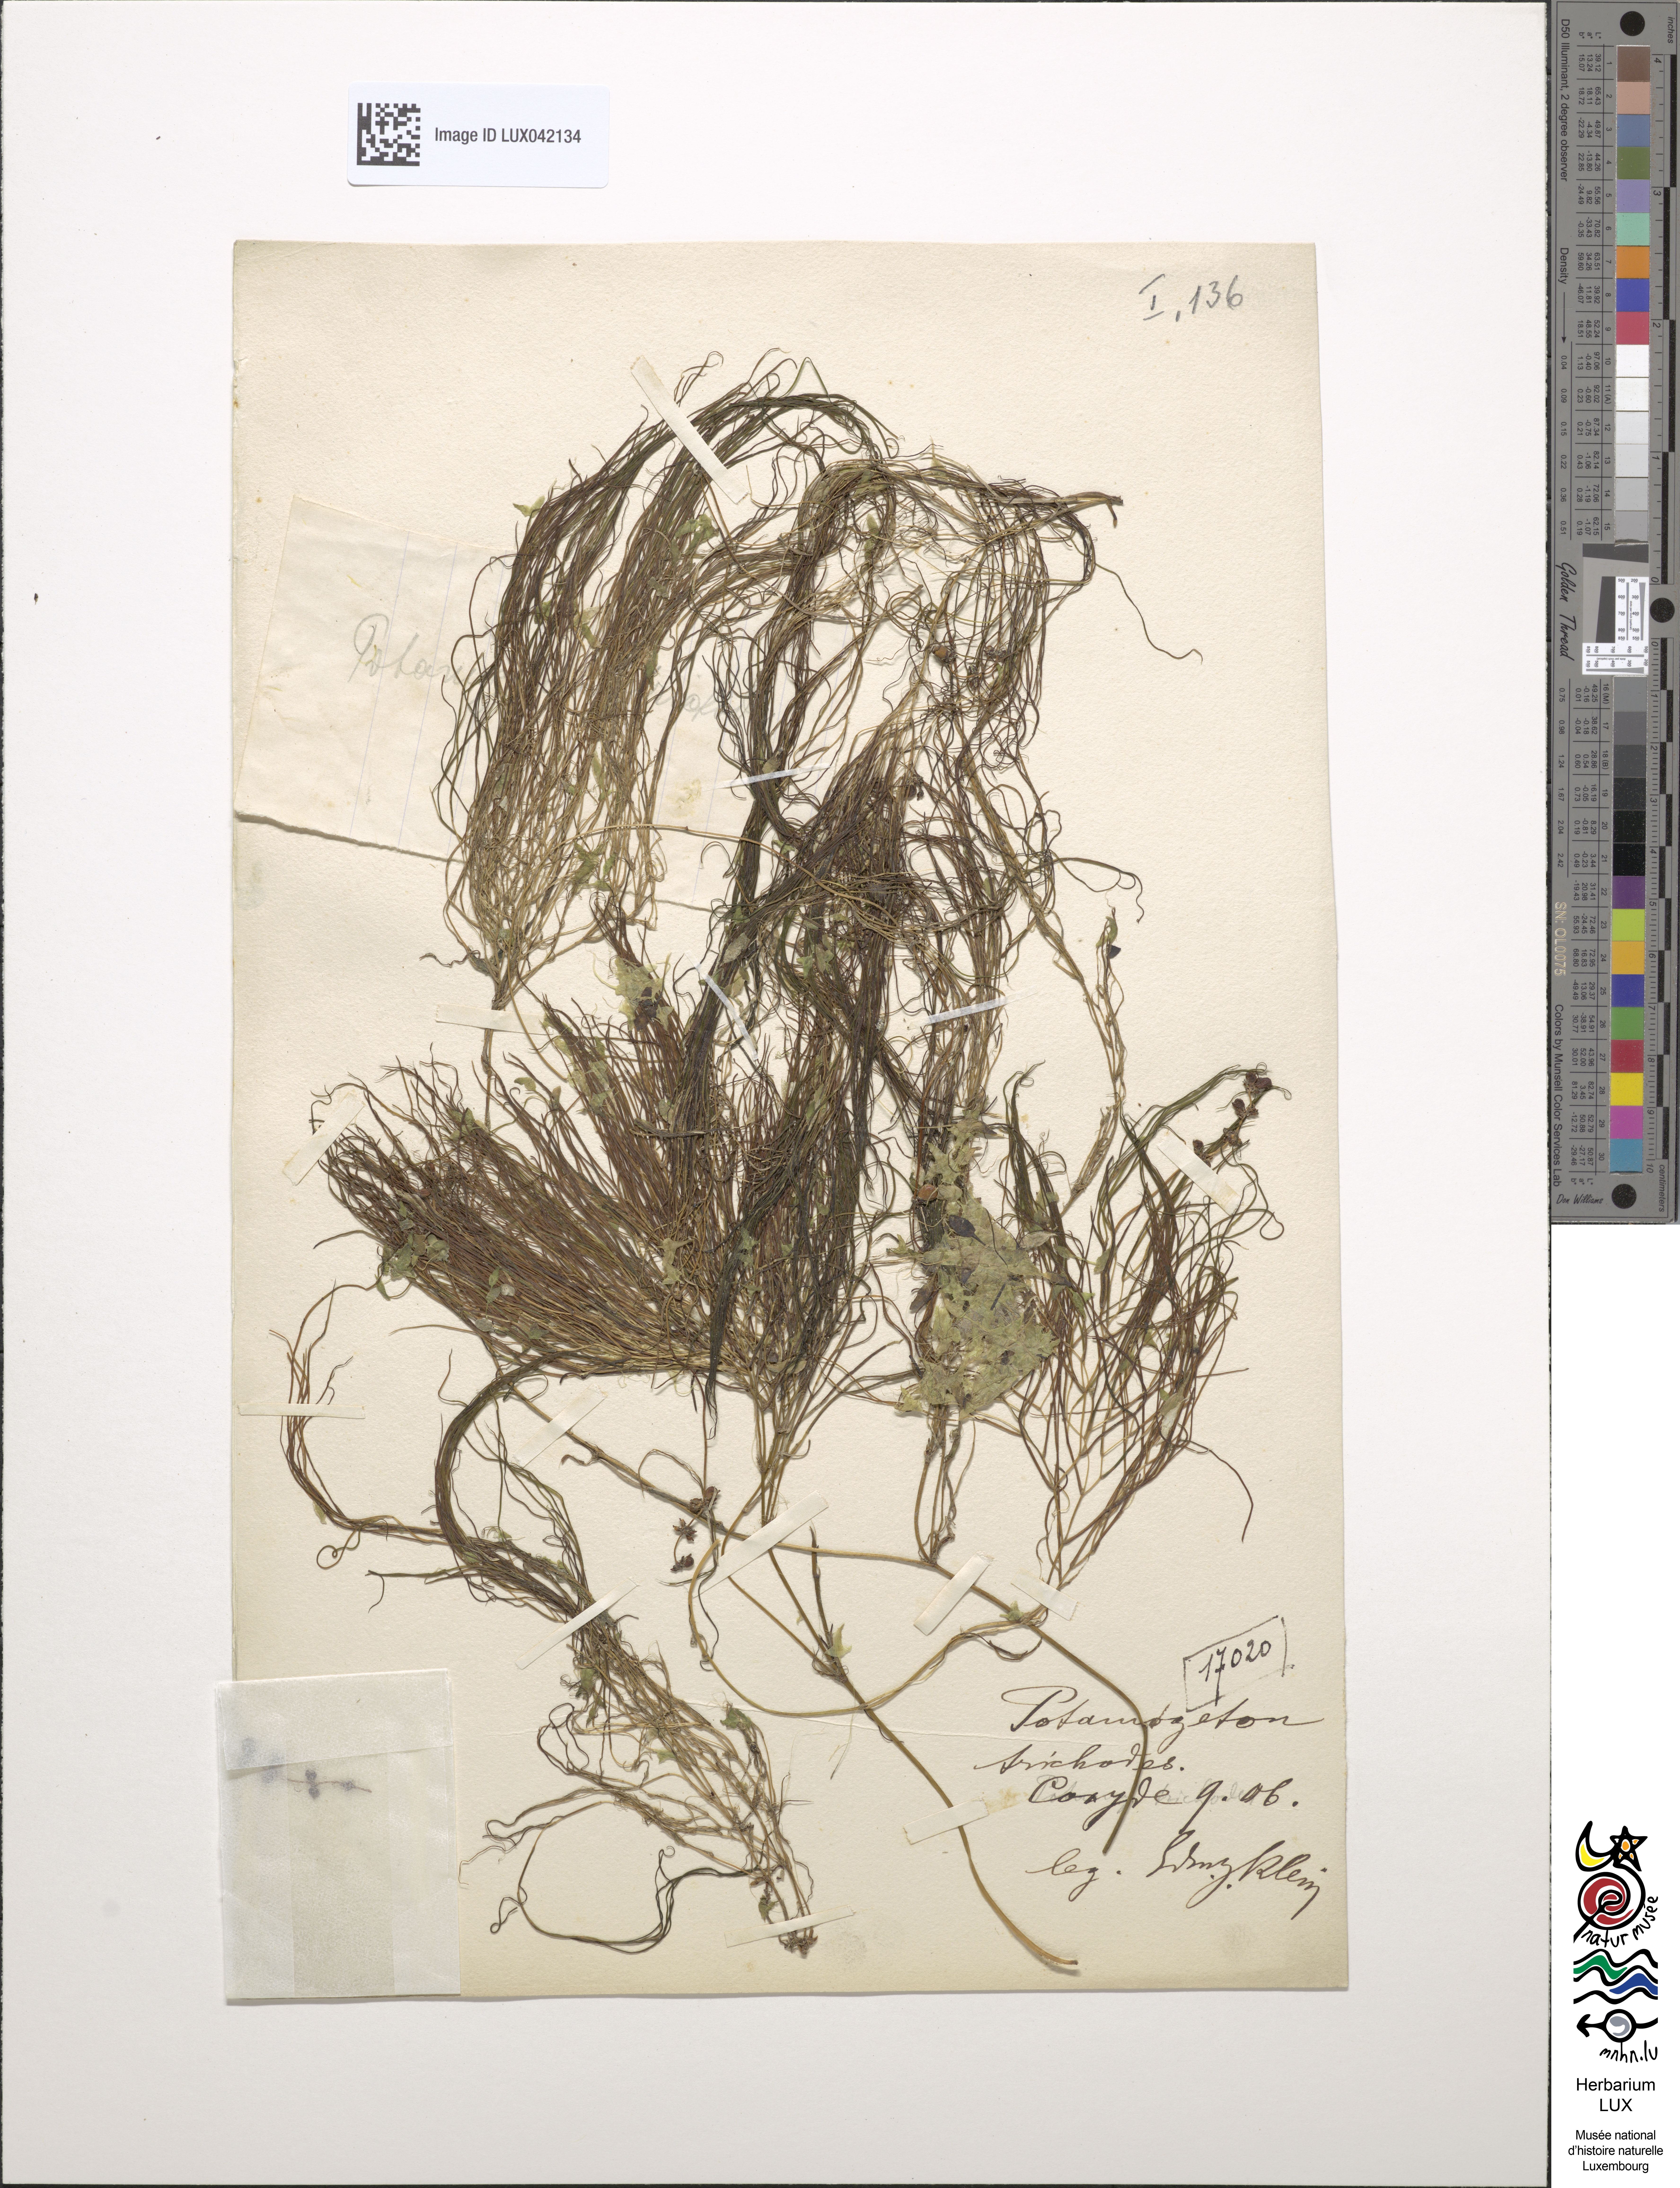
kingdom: Plantae
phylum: Tracheophyta
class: Liliopsida
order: Alismatales
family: Potamogetonaceae
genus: Potamogeton
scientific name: Potamogeton trichoides
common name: Hairlike pondweed
